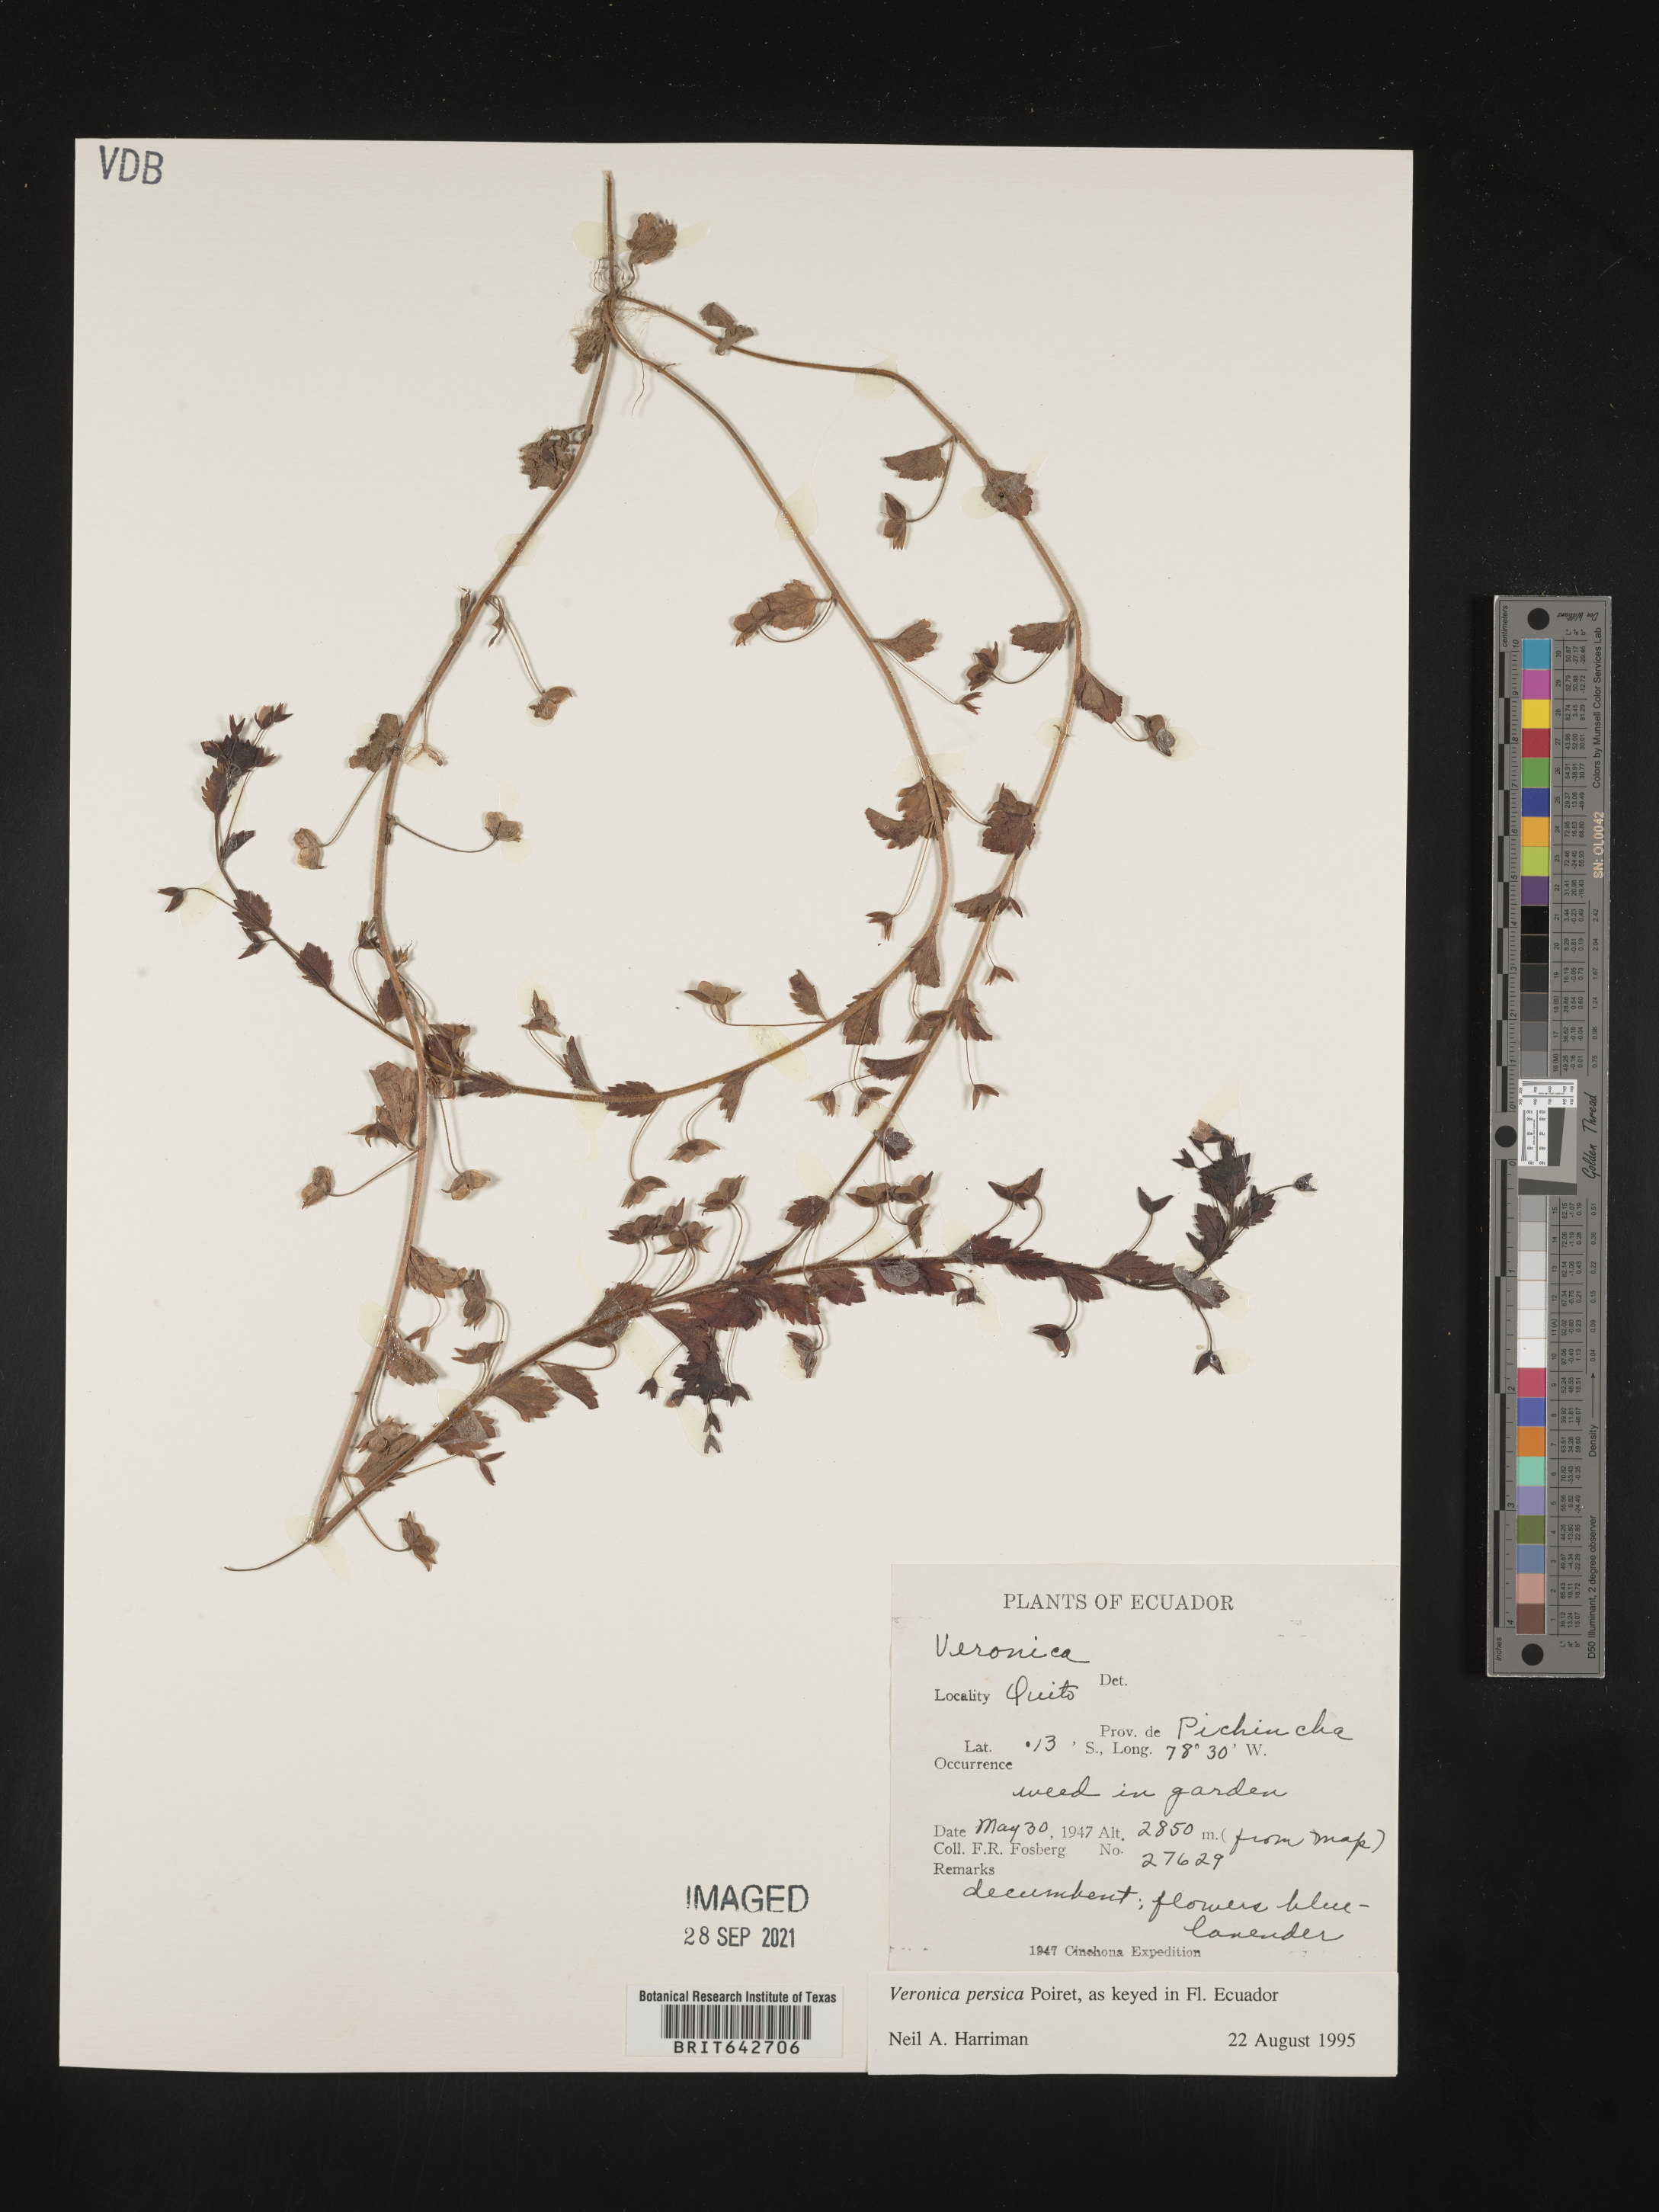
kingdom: Plantae
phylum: Tracheophyta
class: Magnoliopsida
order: Lamiales
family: Plantaginaceae
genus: Veronica
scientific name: Veronica
